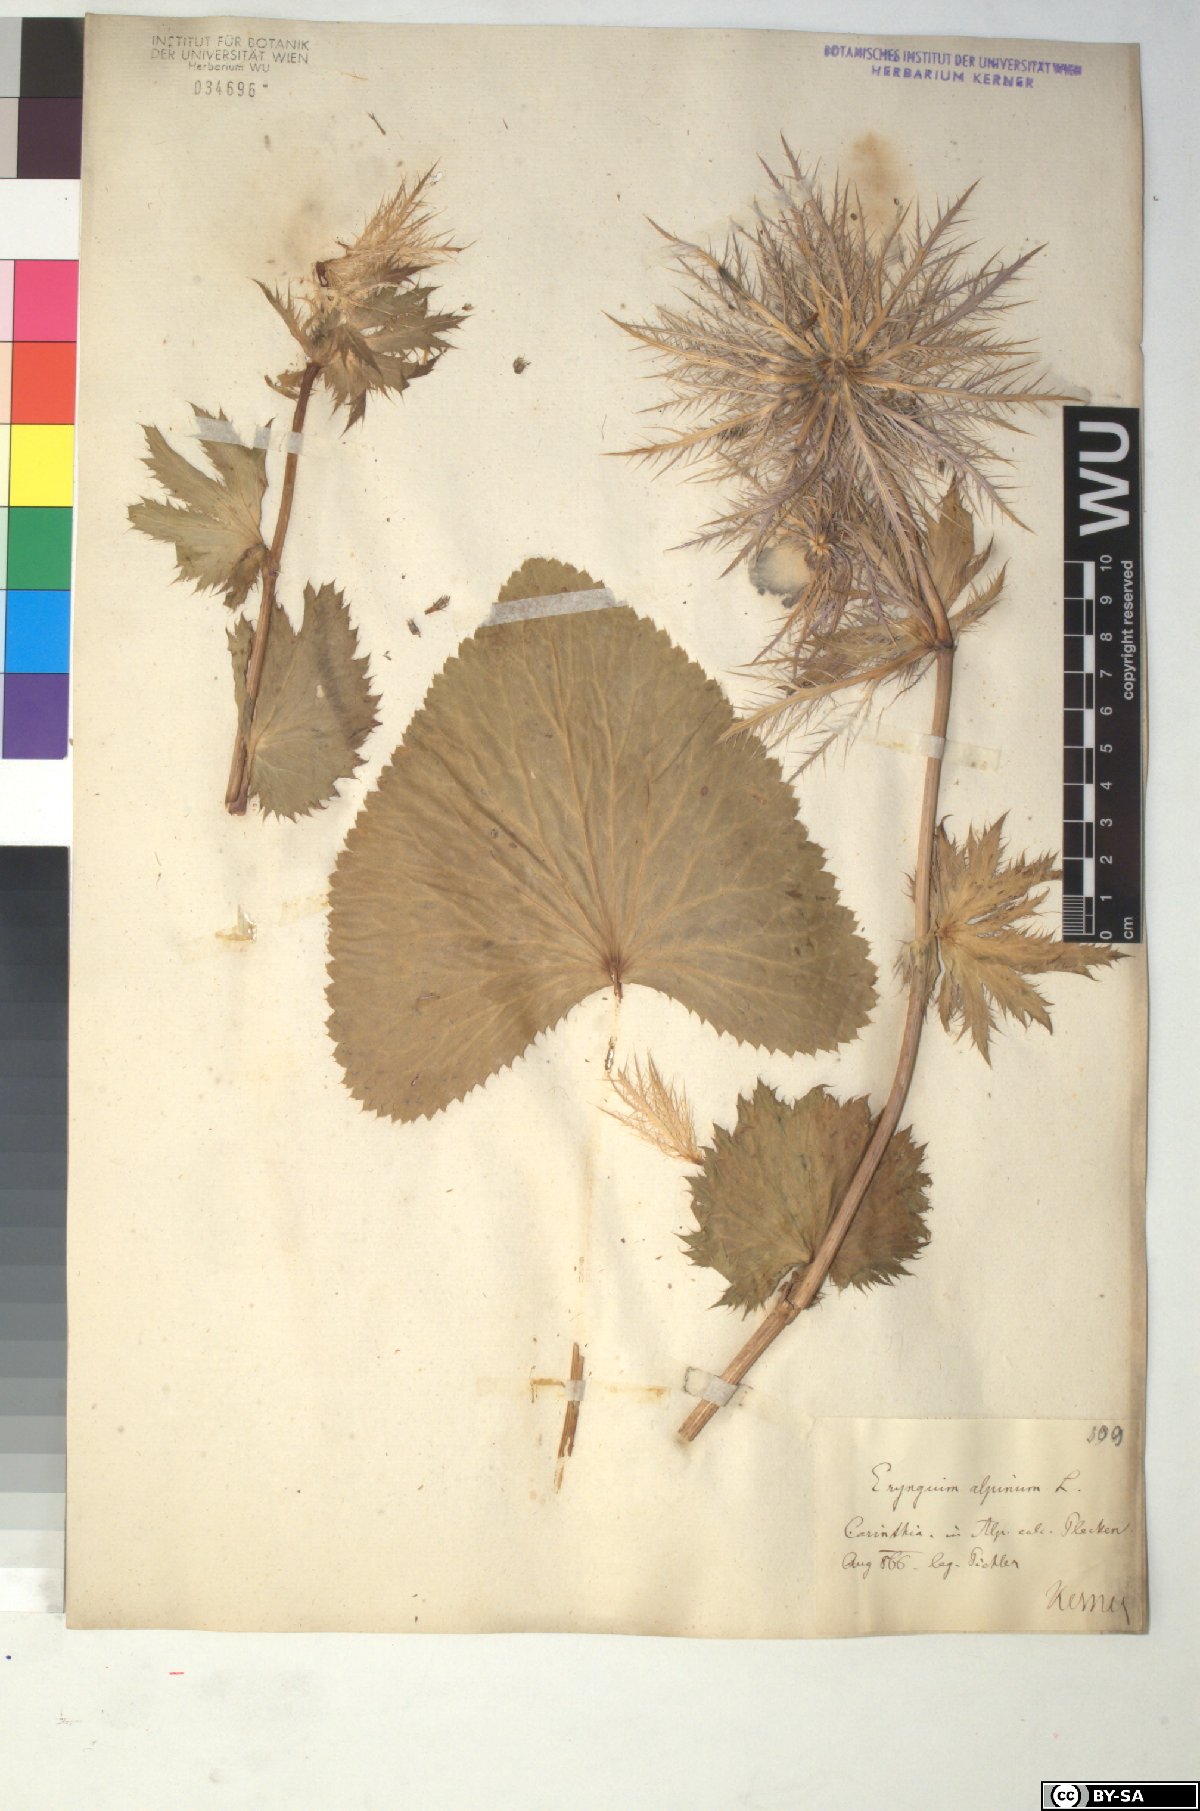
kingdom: Plantae
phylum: Tracheophyta
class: Magnoliopsida
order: Apiales
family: Apiaceae
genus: Eryngium
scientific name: Eryngium alpinum
